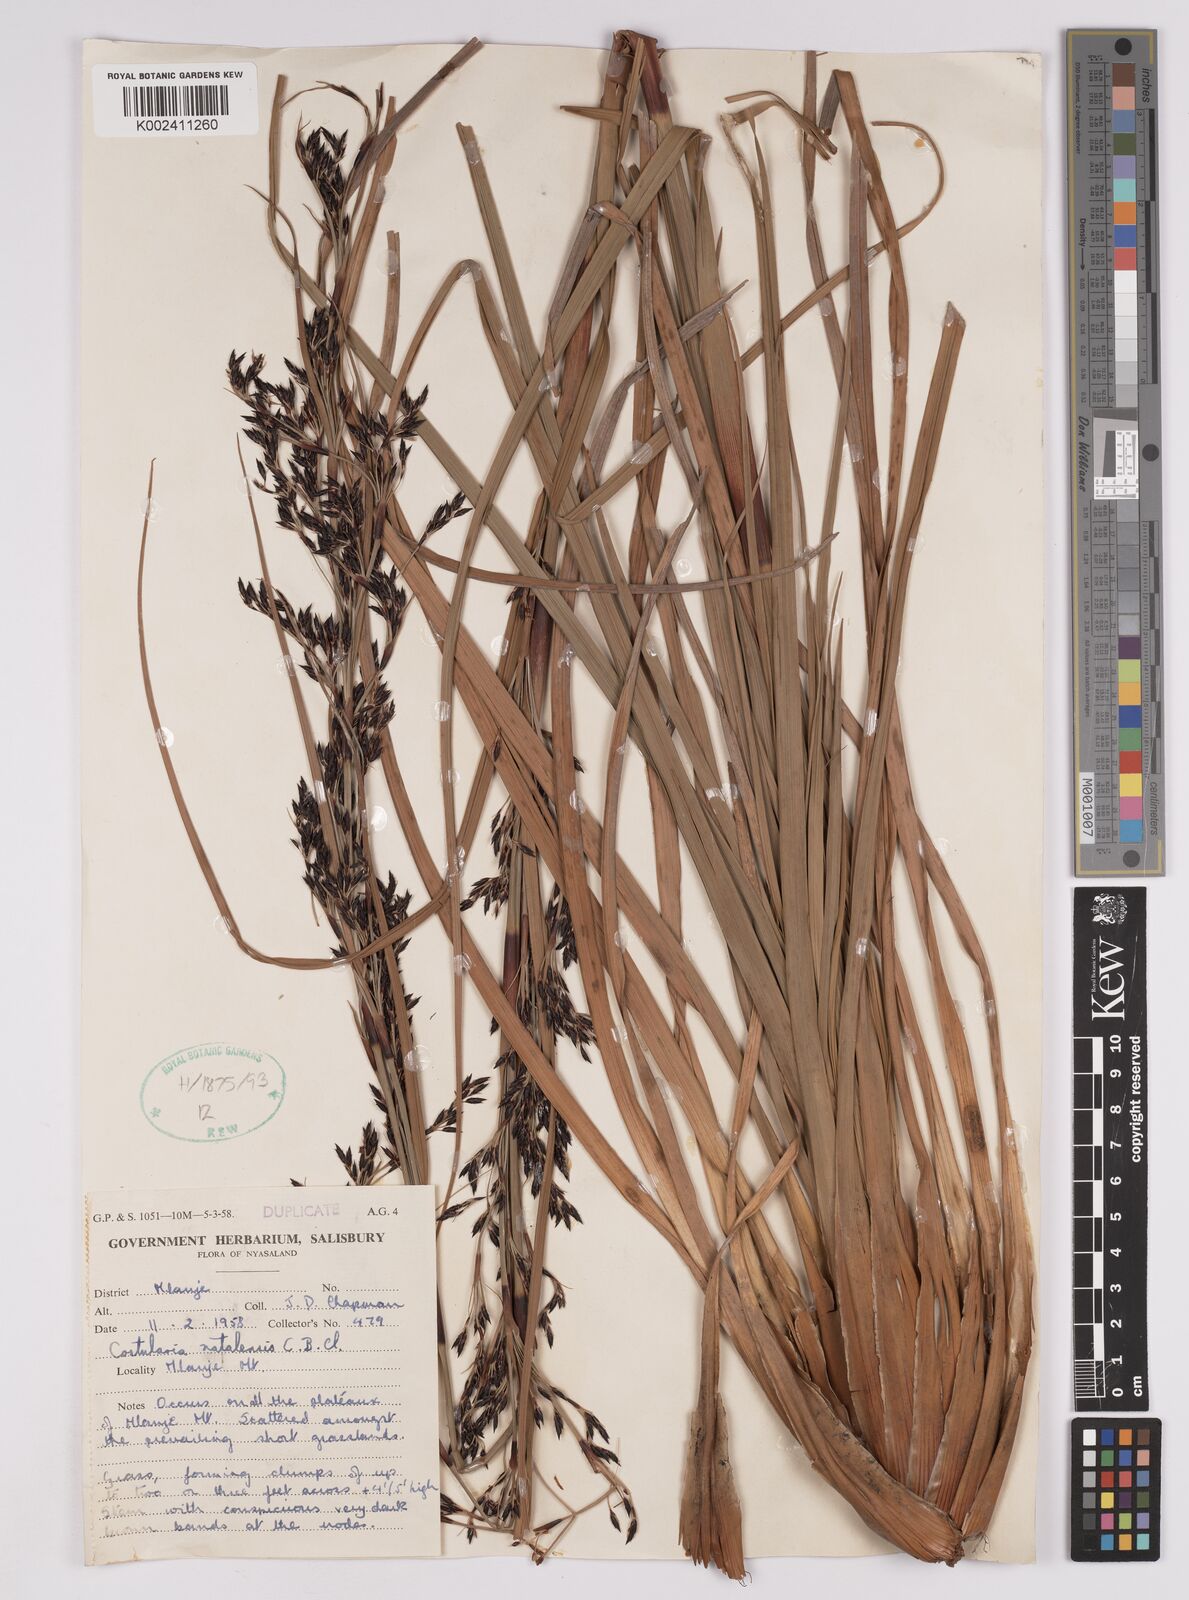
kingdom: Plantae
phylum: Tracheophyta
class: Liliopsida
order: Poales
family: Cyperaceae
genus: Costularia
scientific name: Costularia natalensis
